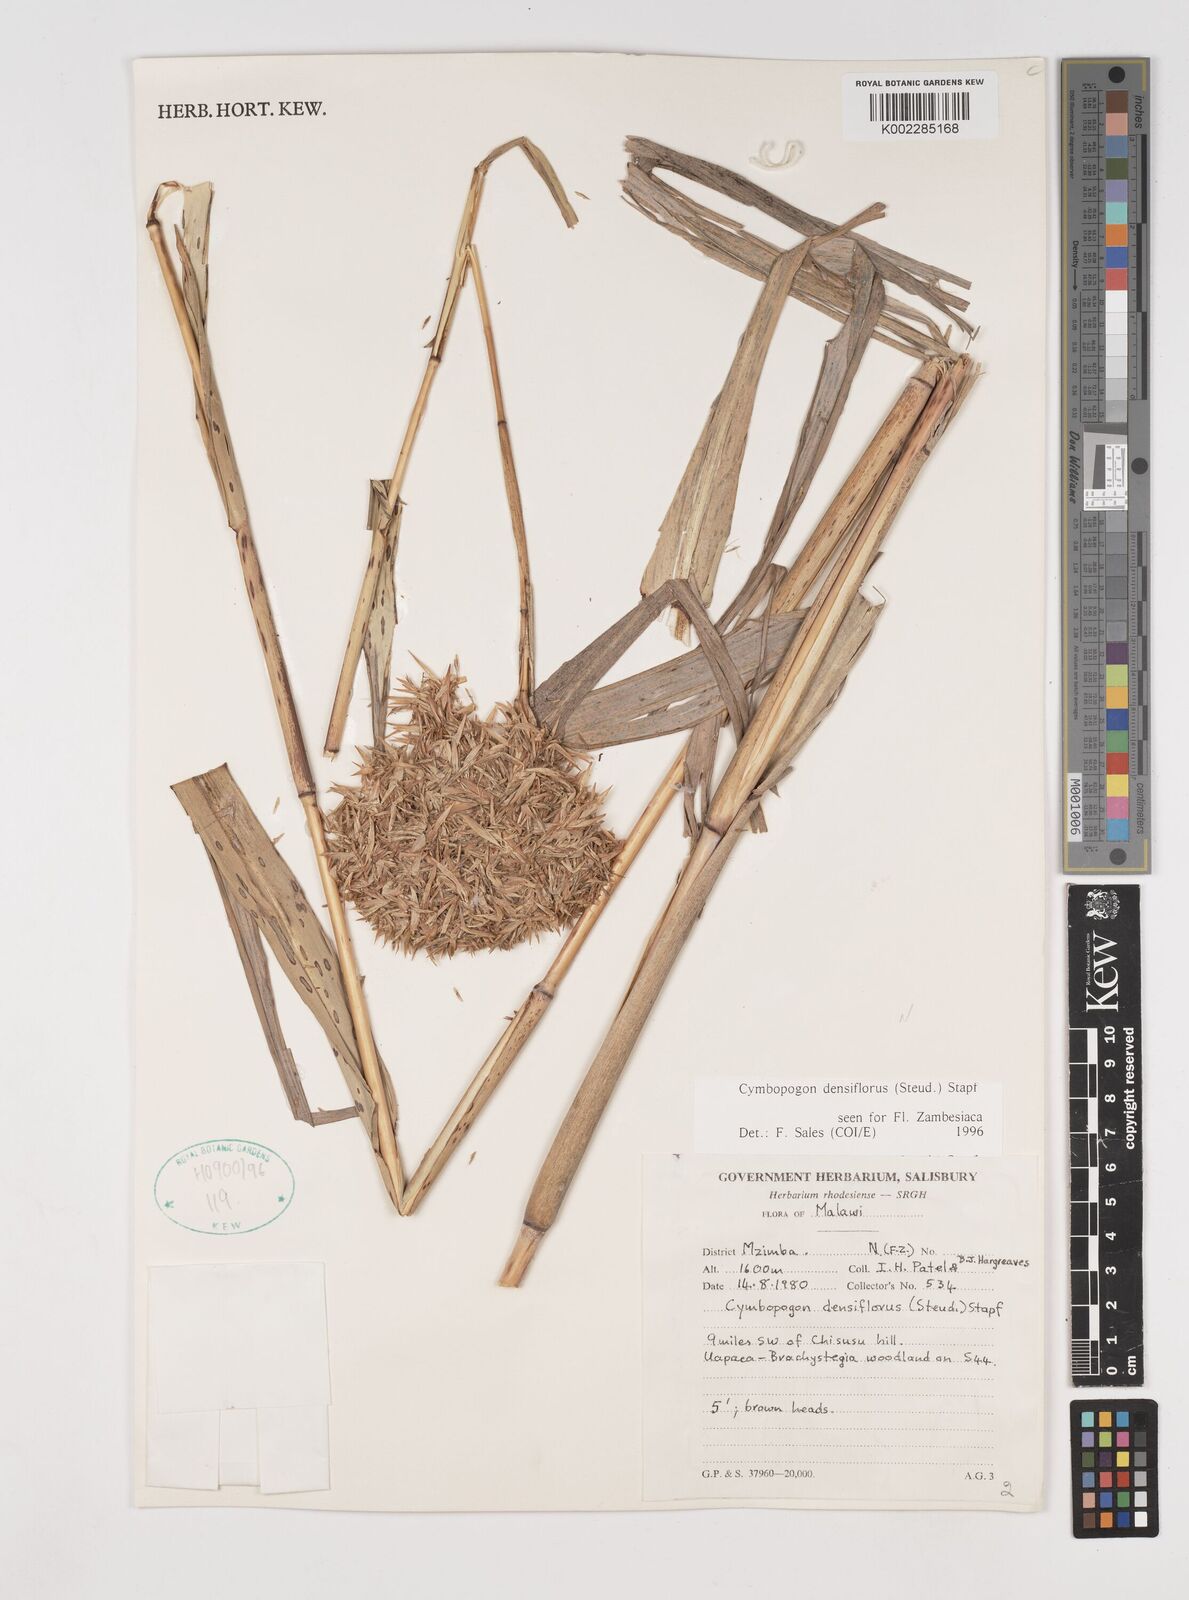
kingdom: Plantae
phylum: Tracheophyta
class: Liliopsida
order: Poales
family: Poaceae
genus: Cymbopogon
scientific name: Cymbopogon densiflorus
